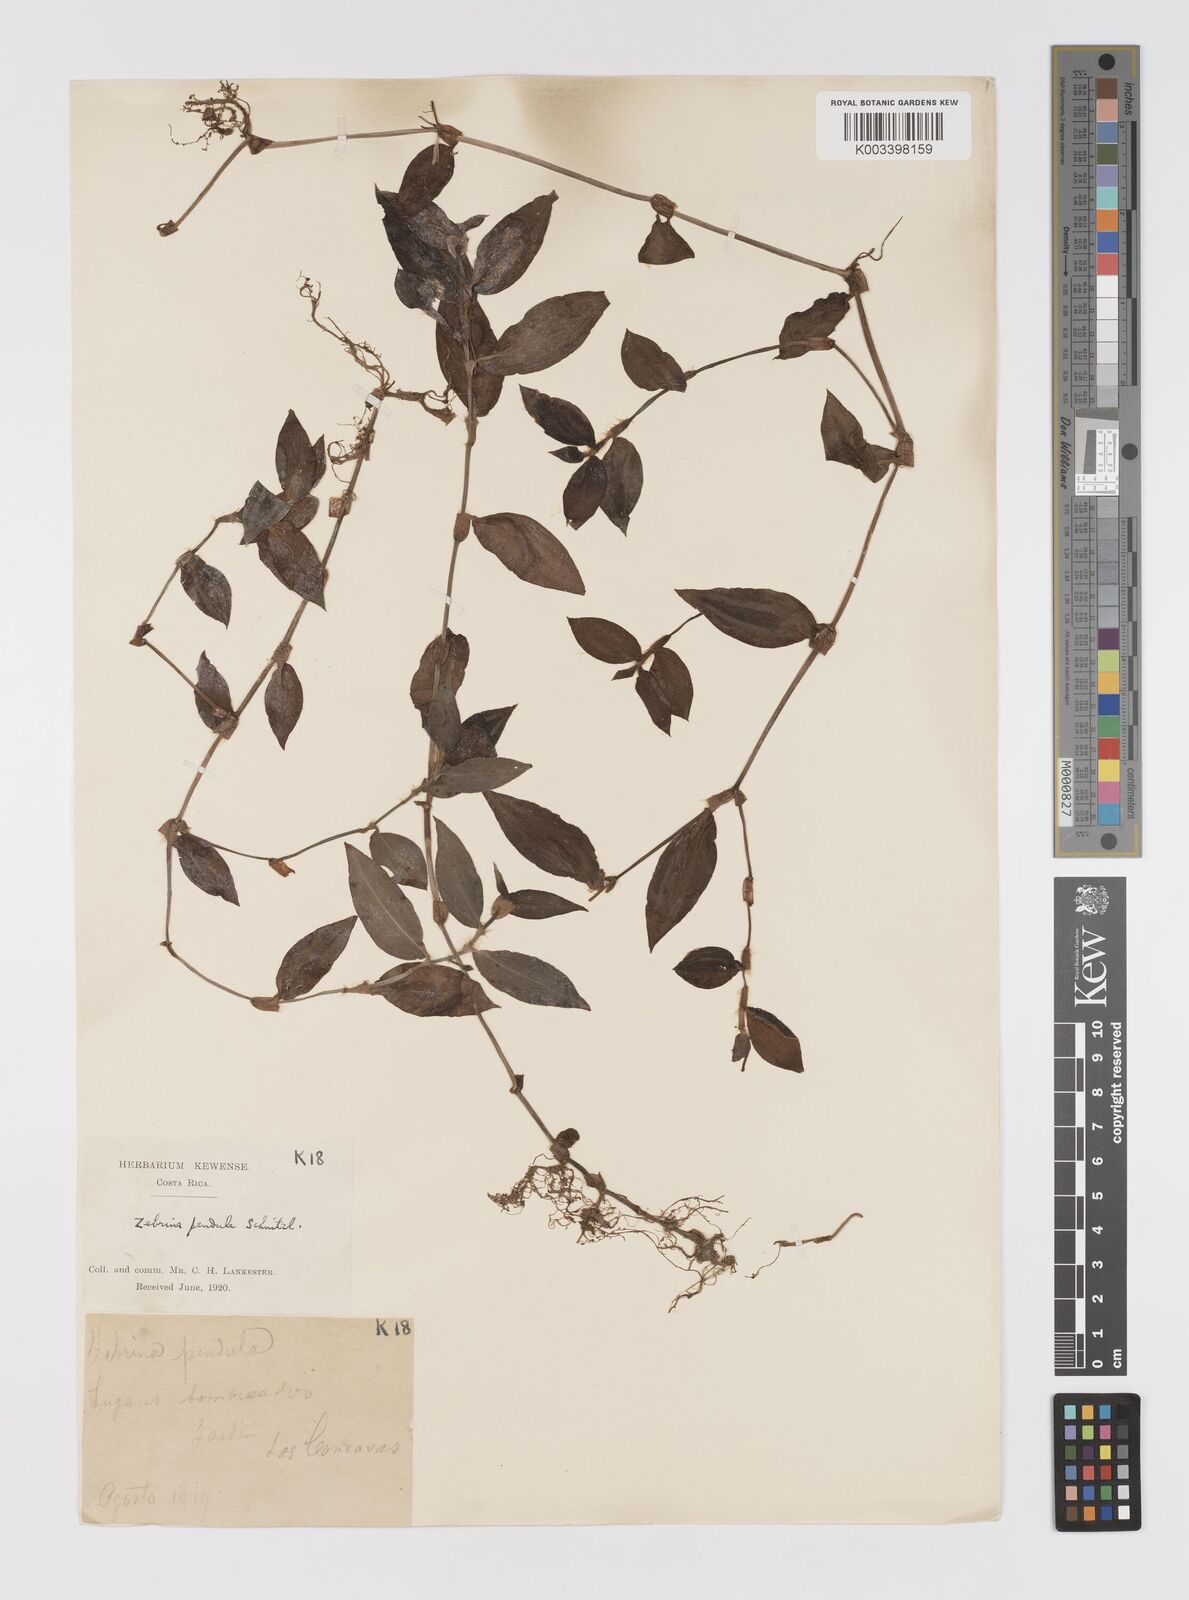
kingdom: Plantae
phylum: Tracheophyta
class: Liliopsida
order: Commelinales
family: Commelinaceae
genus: Tradescantia
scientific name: Tradescantia zebrina
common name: Inchplant
